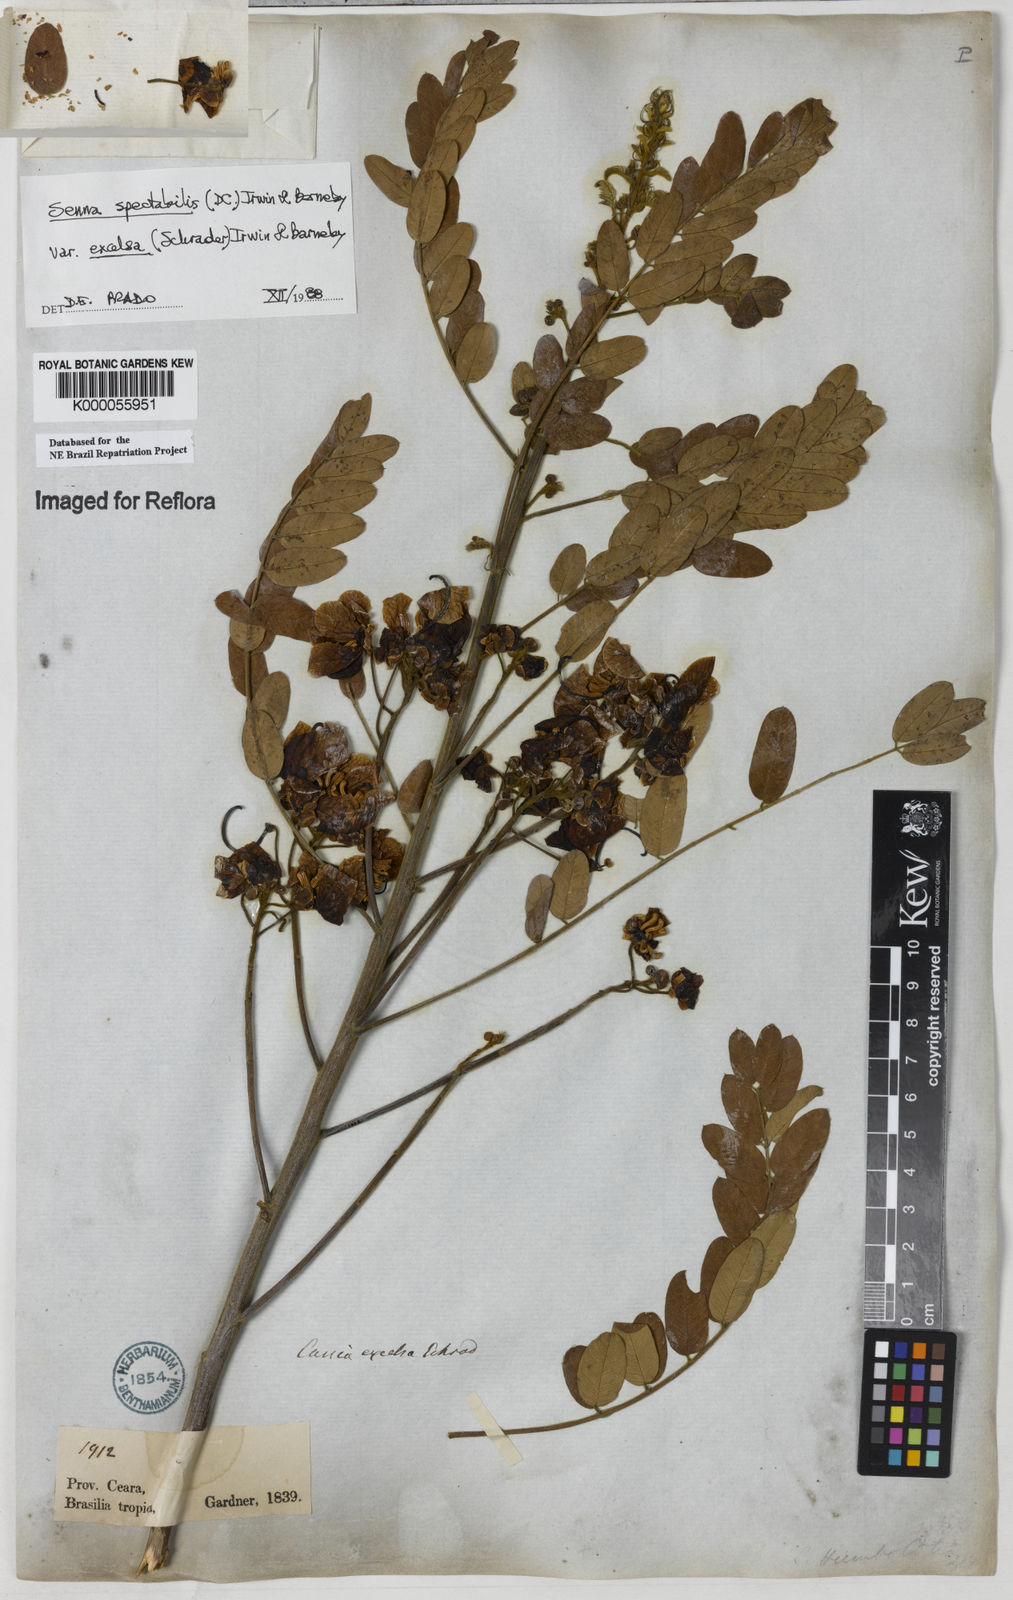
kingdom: Plantae
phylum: Tracheophyta
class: Magnoliopsida
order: Fabales
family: Fabaceae
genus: Senna
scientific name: Senna spectabilis
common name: Casia amarilla
